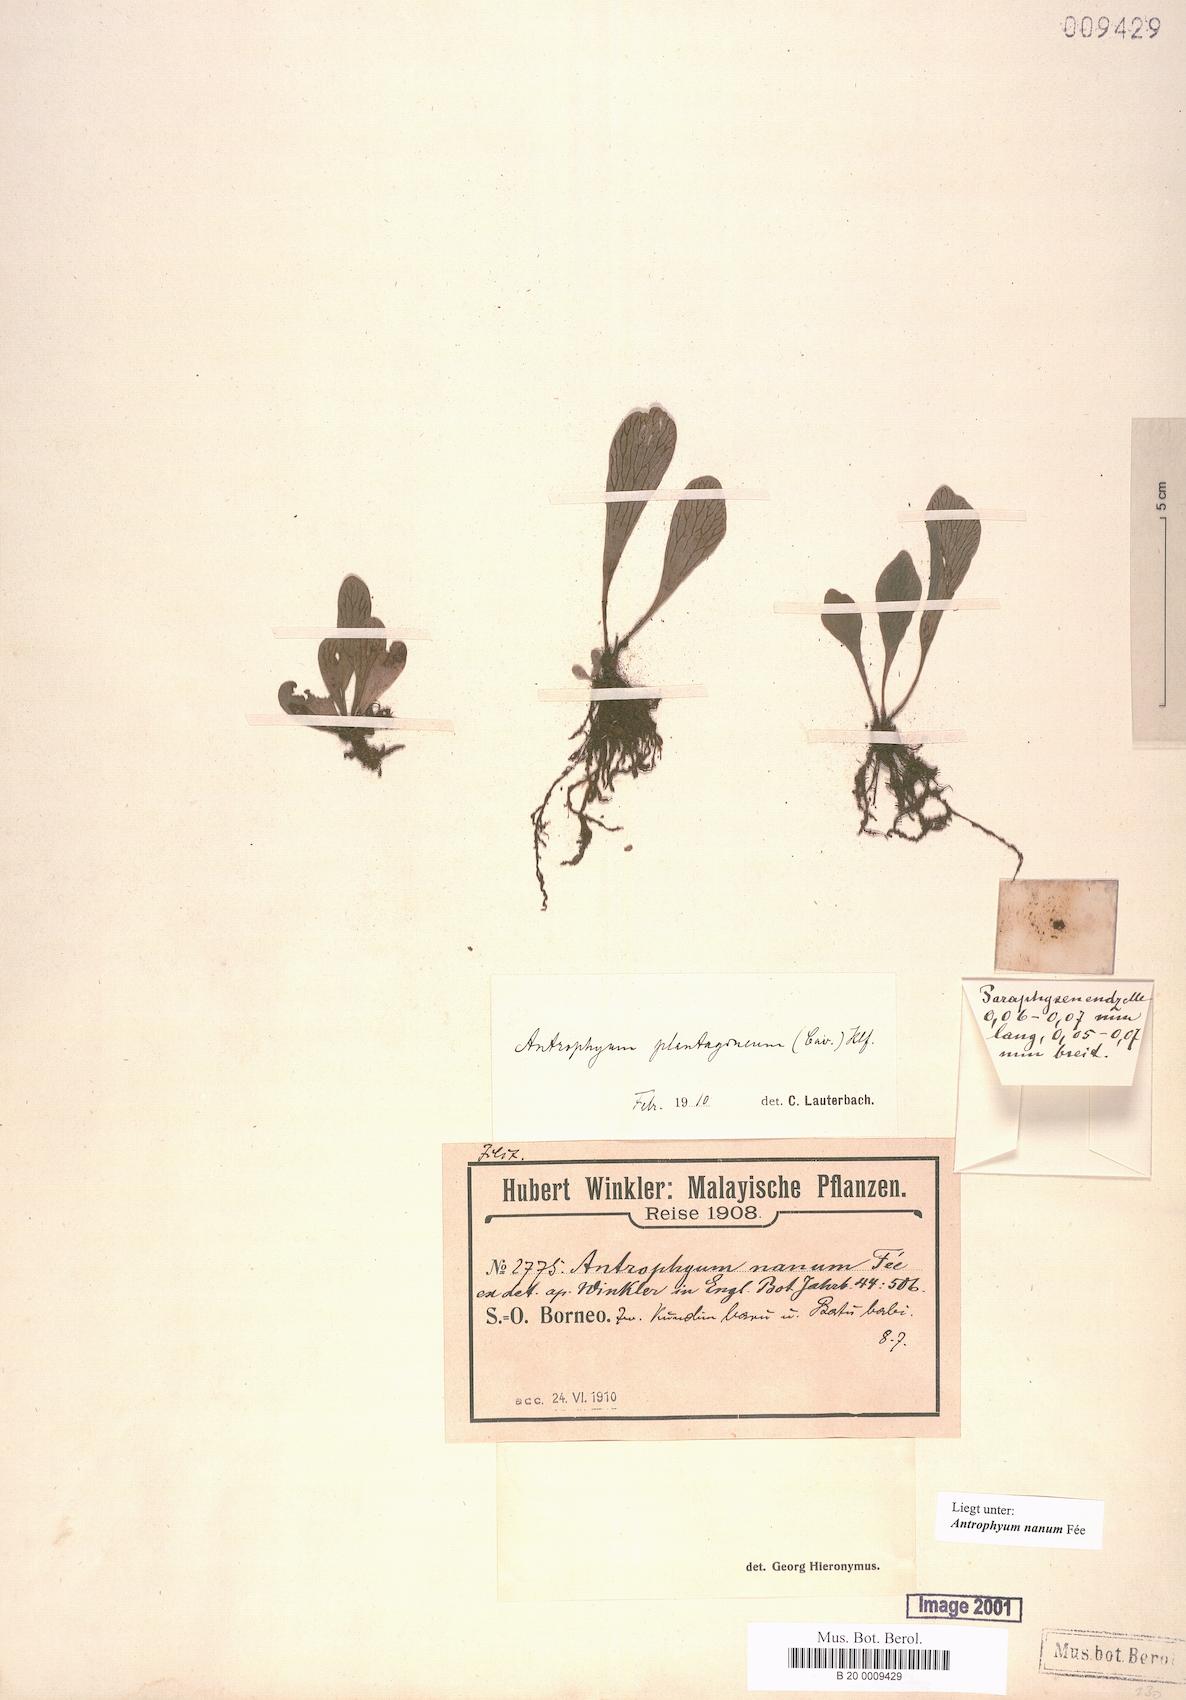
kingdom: Plantae
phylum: Tracheophyta
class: Polypodiopsida
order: Polypodiales
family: Pteridaceae
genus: Antrophyum
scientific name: Antrophyum callifolium
